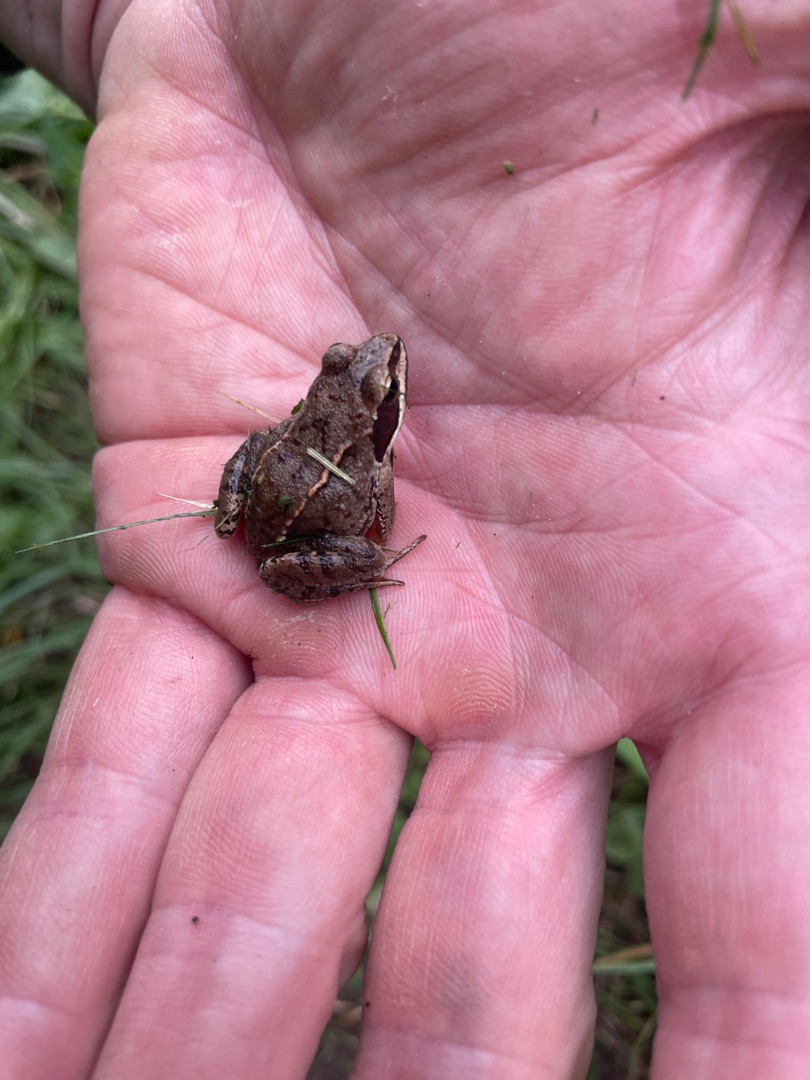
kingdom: Animalia
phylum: Chordata
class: Amphibia
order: Anura
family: Ranidae
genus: Rana
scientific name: Rana arvalis
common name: Spidssnudet frø
